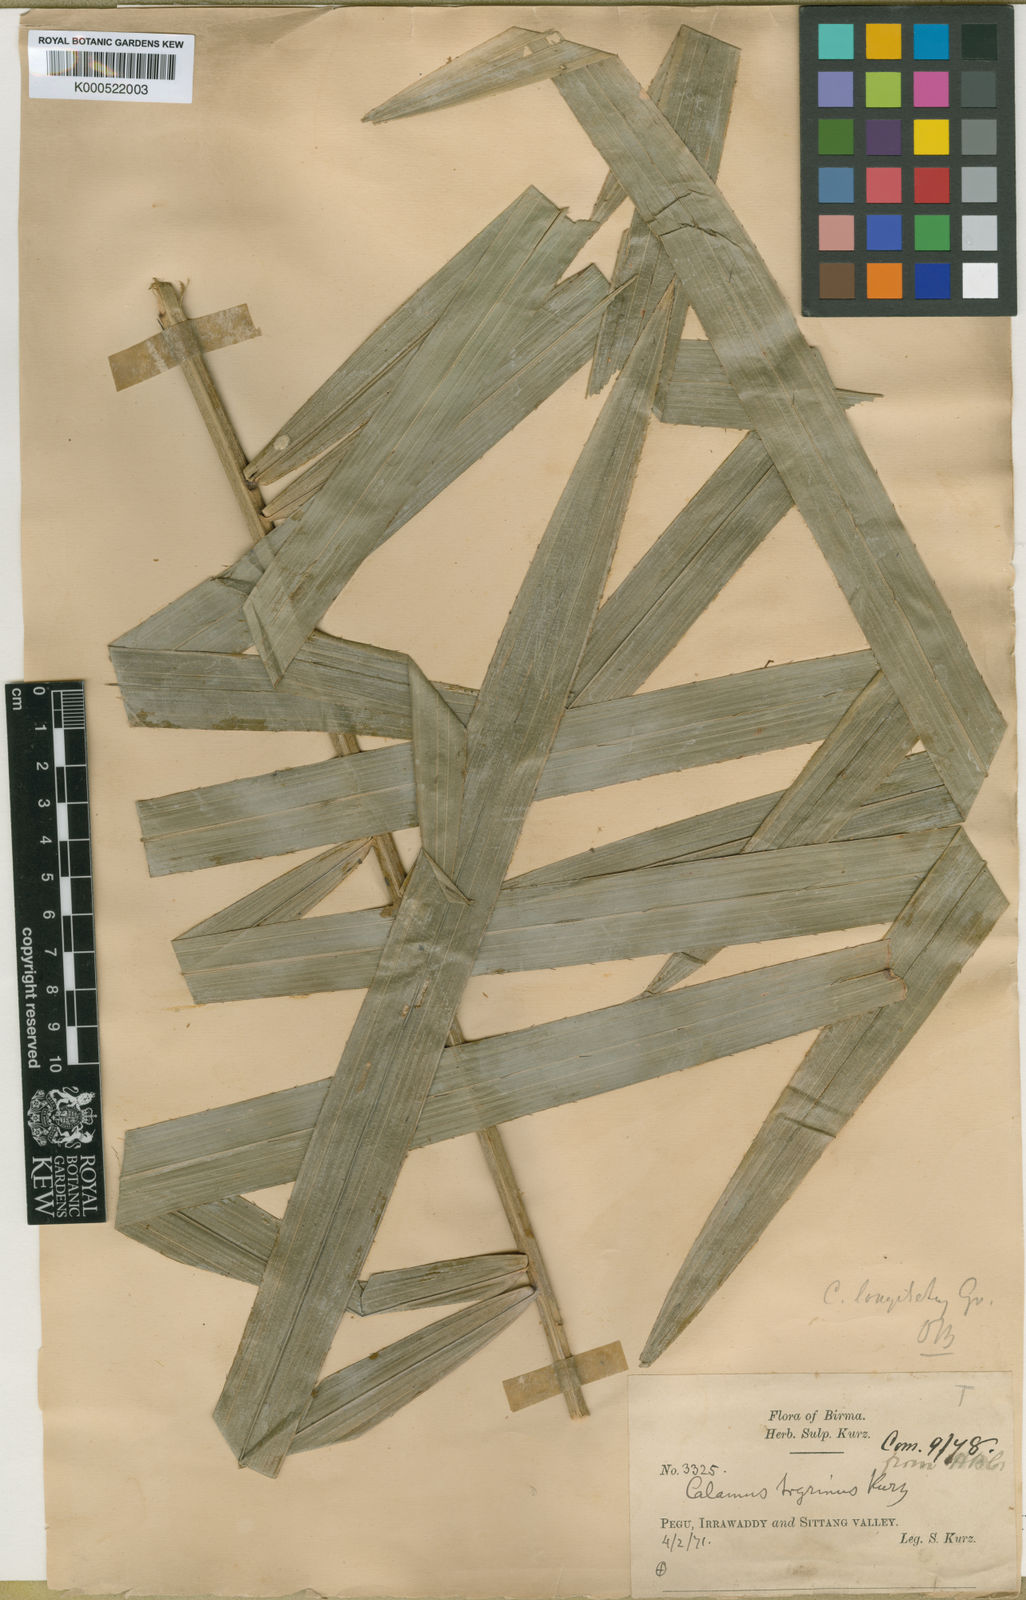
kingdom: Plantae
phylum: Tracheophyta
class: Liliopsida
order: Arecales
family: Arecaceae
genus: Calamus
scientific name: Calamus longisetus
